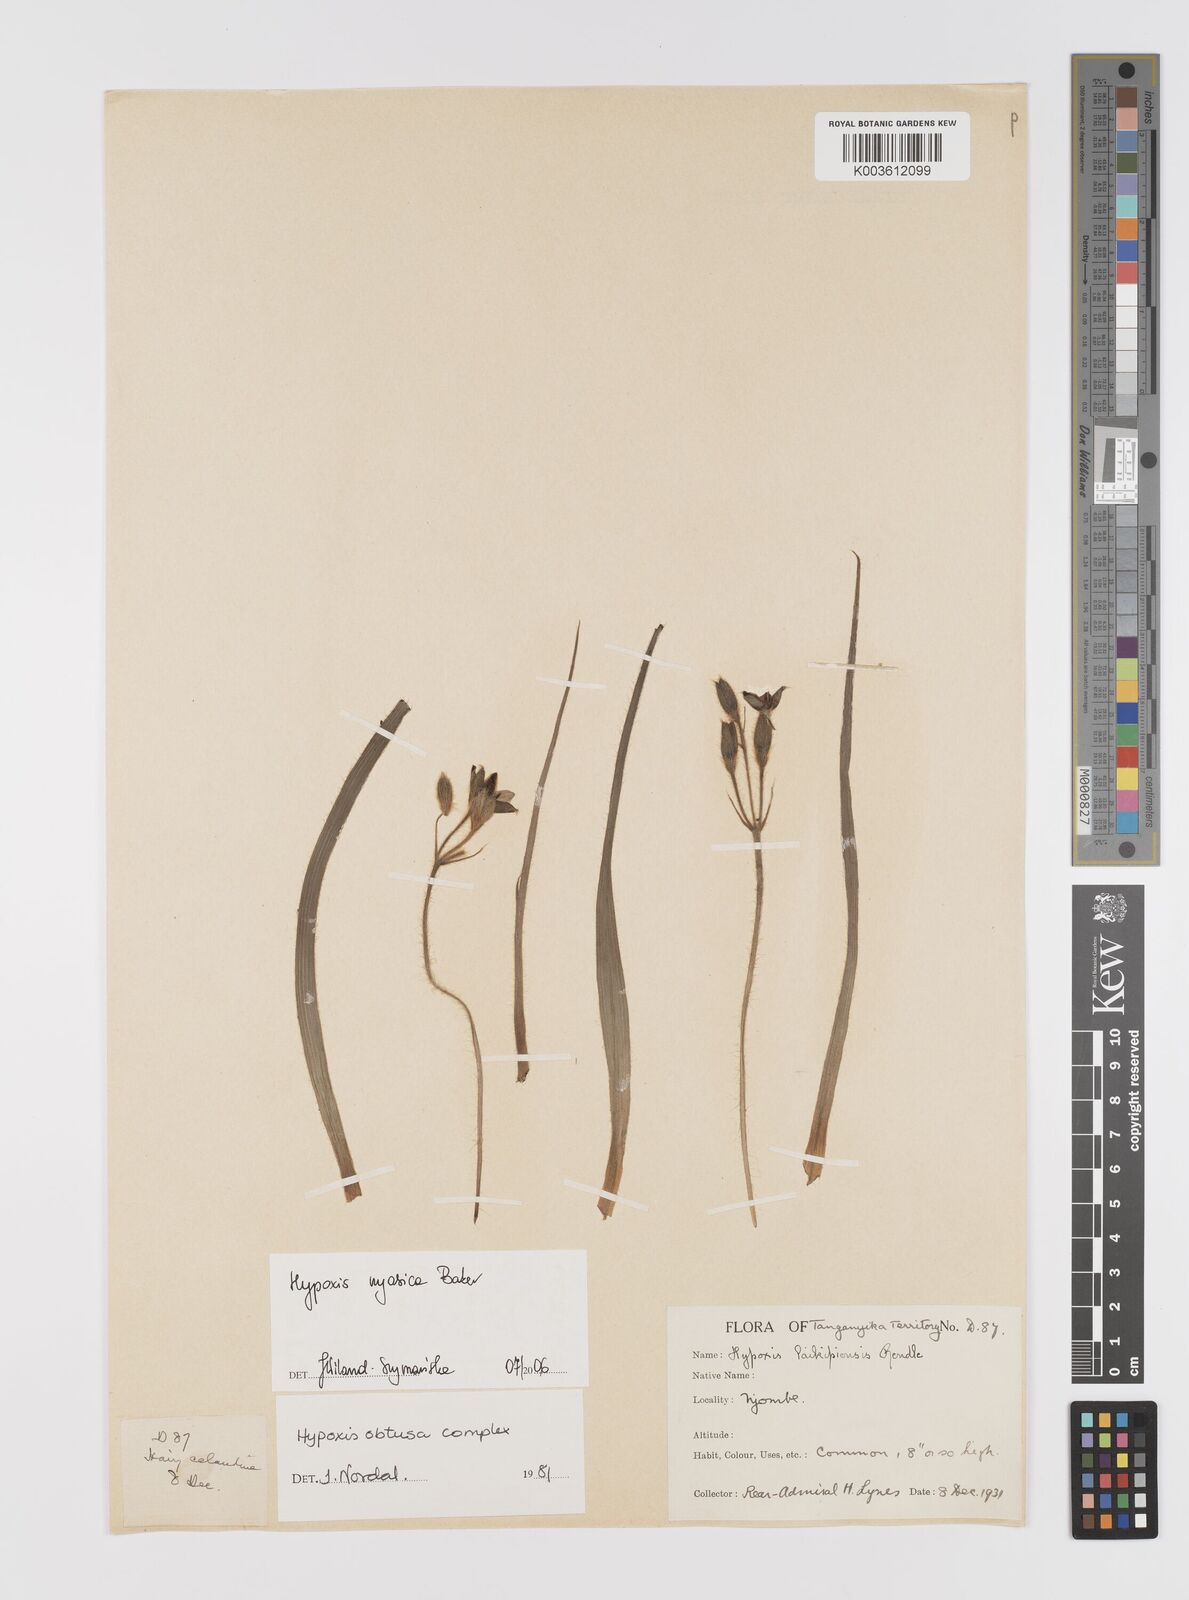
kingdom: Plantae
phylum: Tracheophyta
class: Liliopsida
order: Asparagales
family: Hypoxidaceae
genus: Hypoxis
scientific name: Hypoxis nyasica
